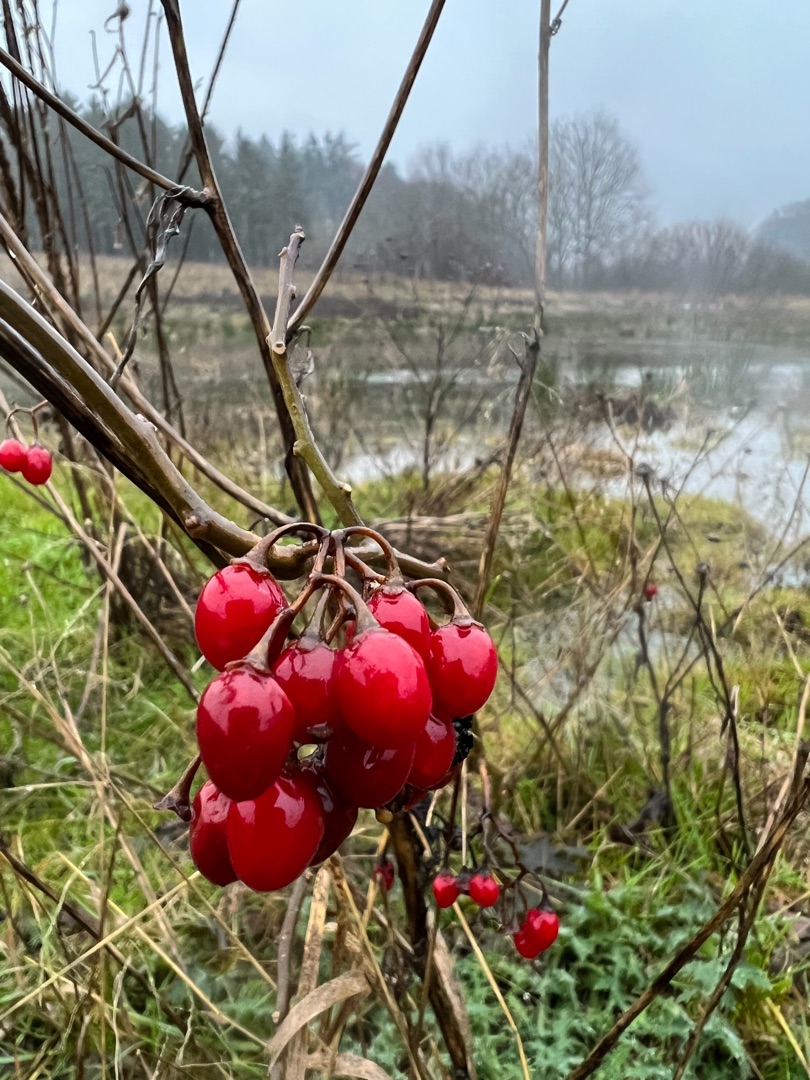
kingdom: Plantae
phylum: Tracheophyta
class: Magnoliopsida
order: Solanales
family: Solanaceae
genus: Solanum
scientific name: Solanum dulcamara
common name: Bittersød natskygge
